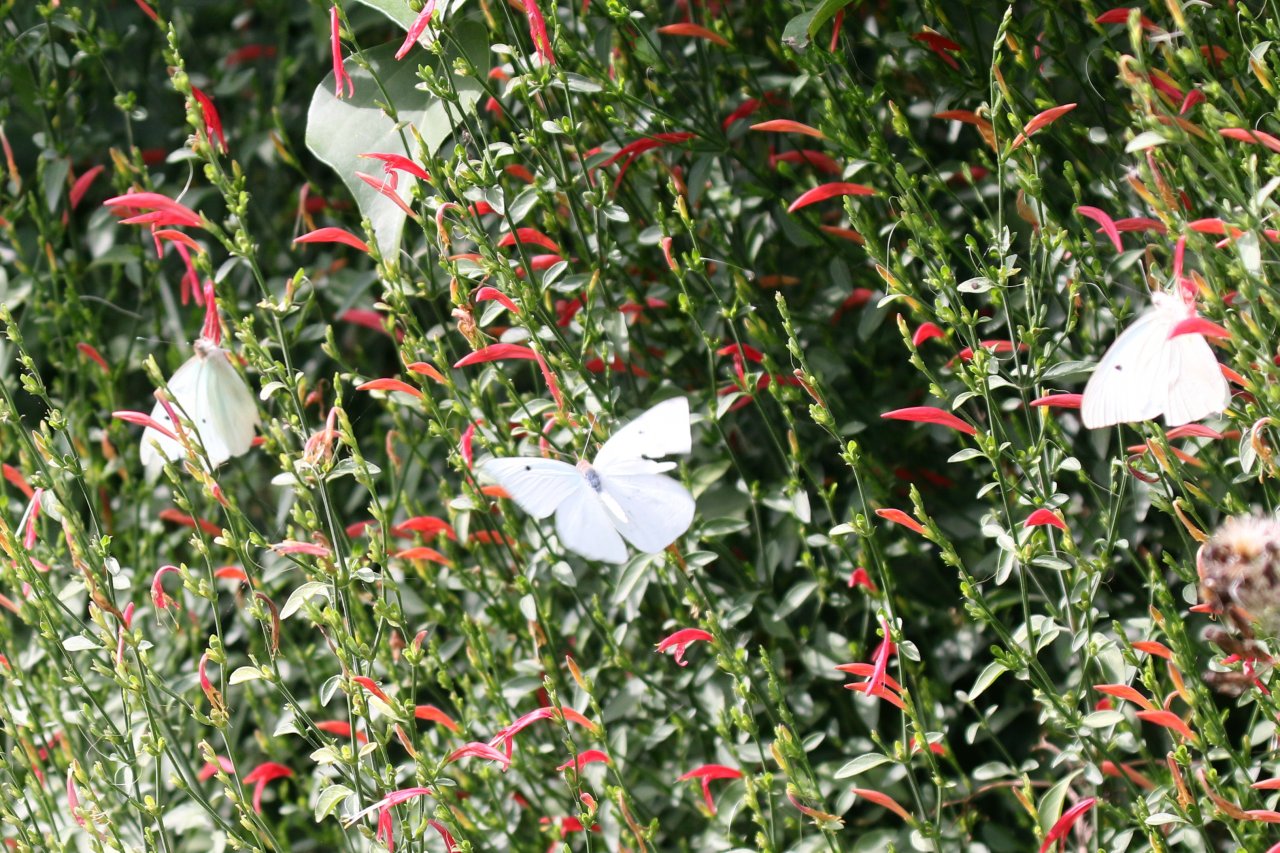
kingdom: Animalia
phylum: Arthropoda
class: Insecta
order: Lepidoptera
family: Pieridae
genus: Ganyra
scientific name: Ganyra josephina
